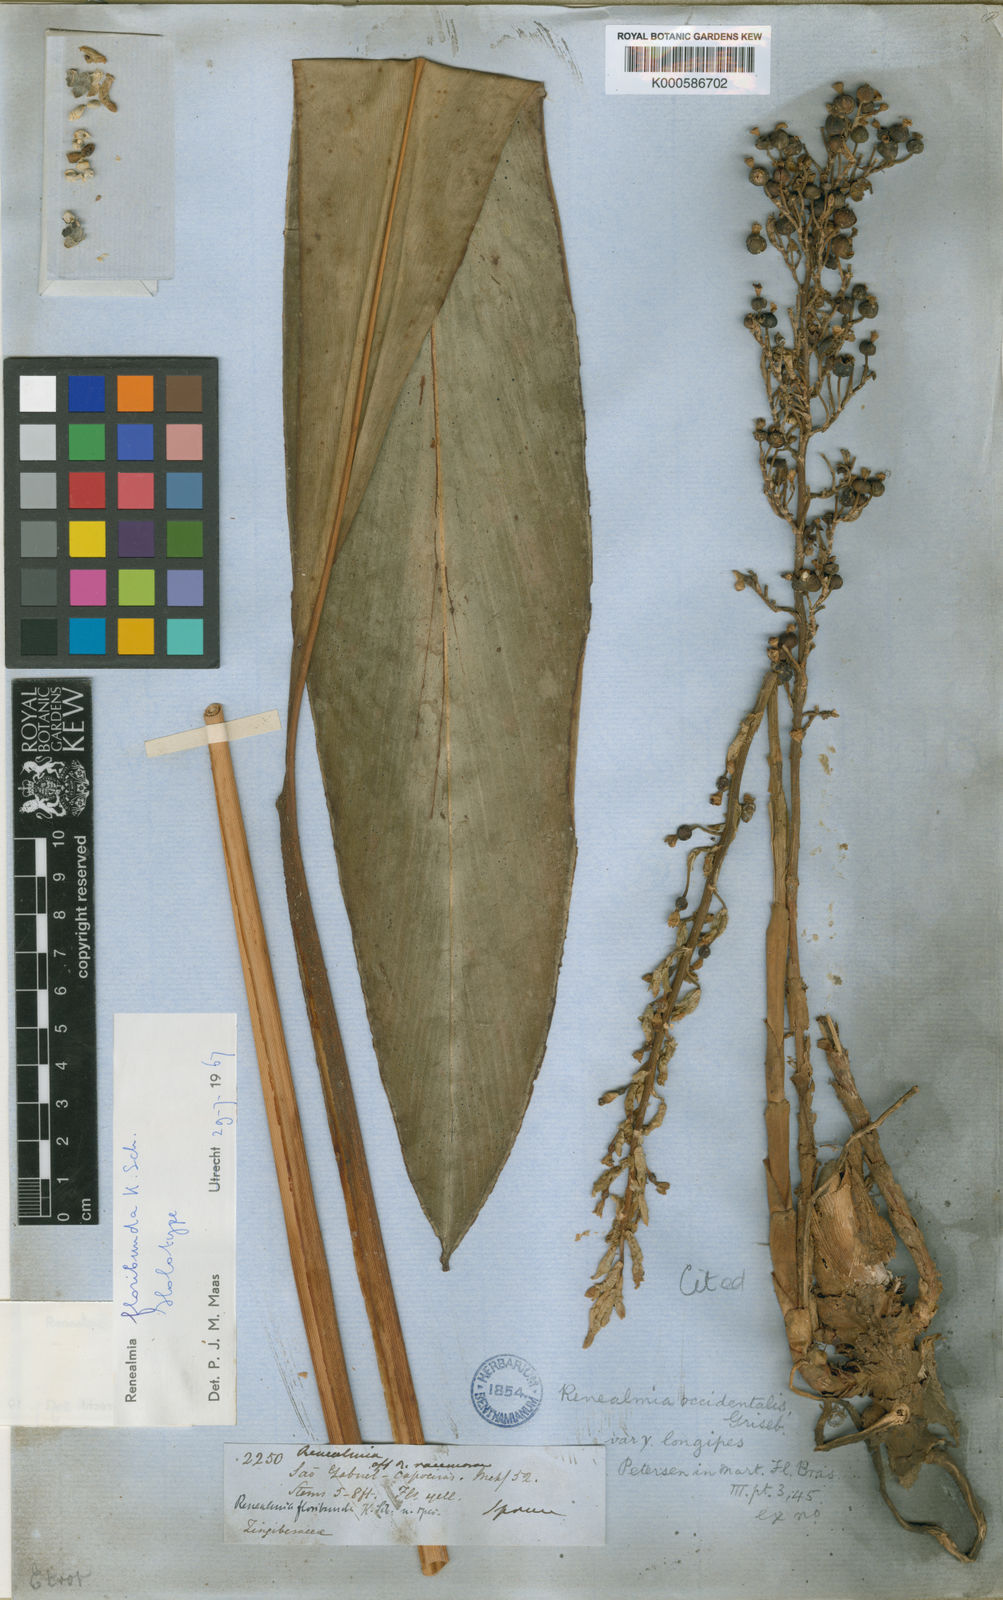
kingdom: Plantae
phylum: Tracheophyta
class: Liliopsida
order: Zingiberales
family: Zingiberaceae
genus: Renealmia
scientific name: Renealmia floribunda
